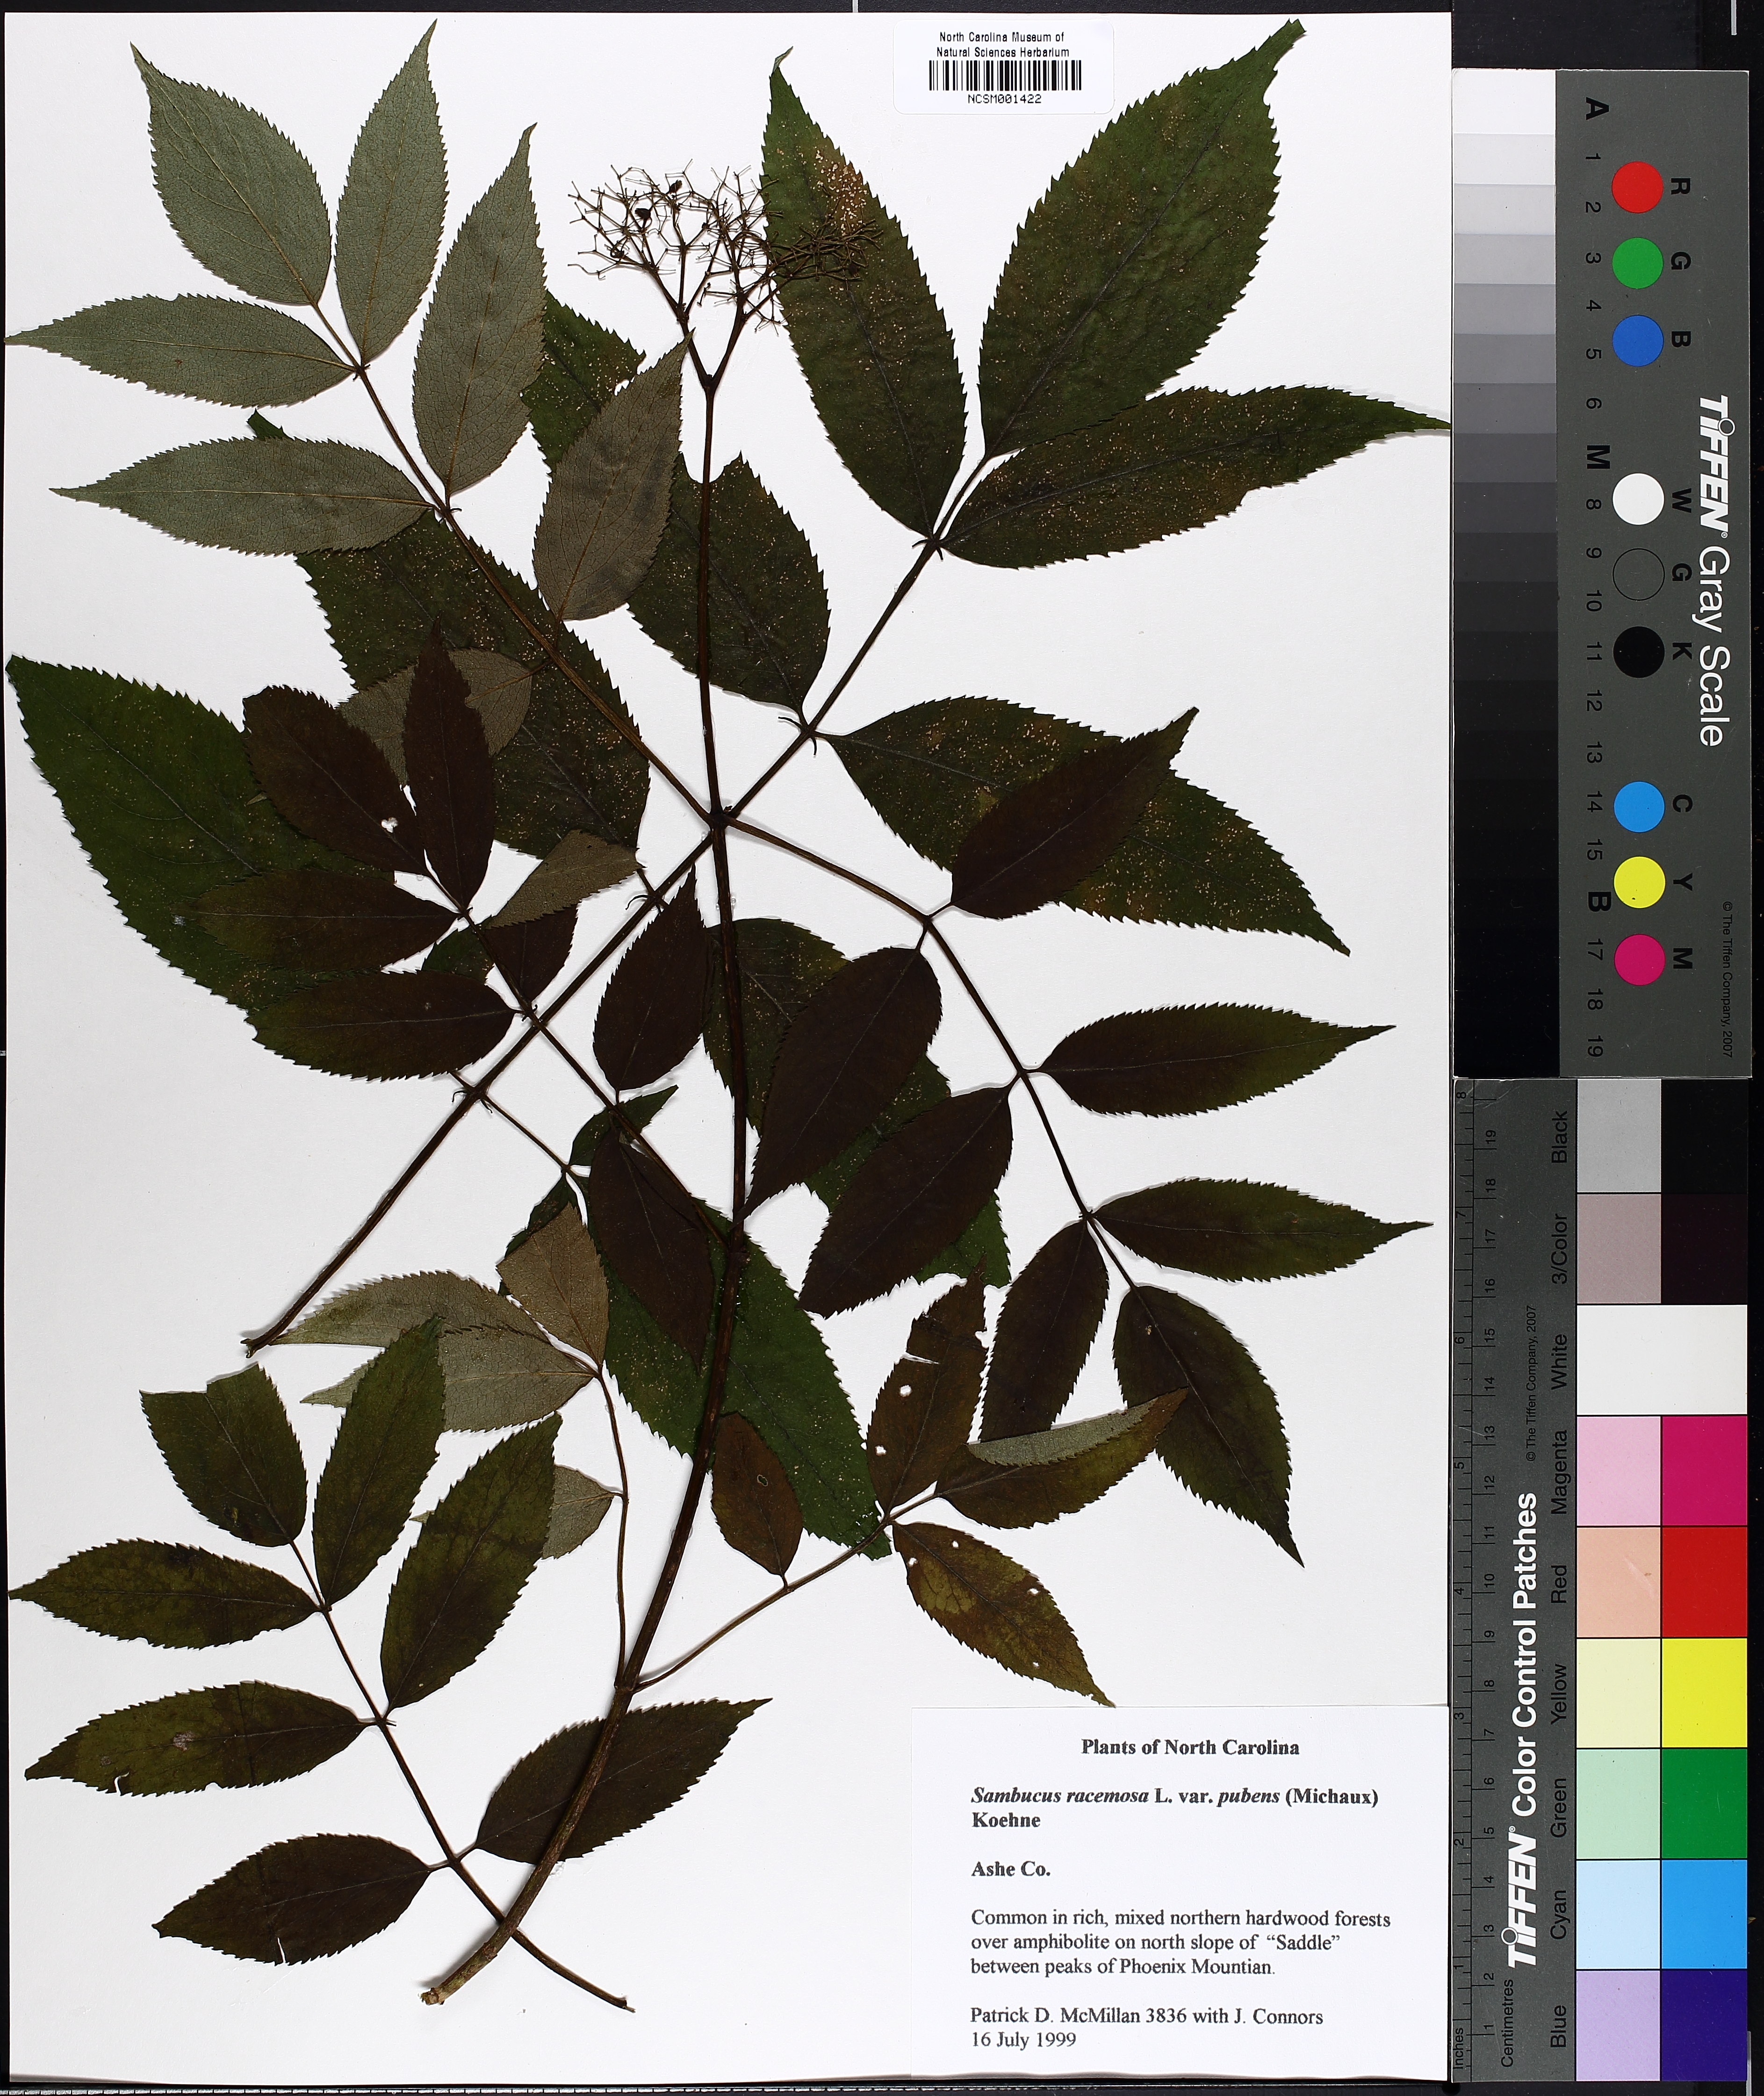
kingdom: Plantae
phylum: Tracheophyta
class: Magnoliopsida
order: Dipsacales
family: Viburnaceae
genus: Sambucus
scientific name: Sambucus racemosa
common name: Red-berried elder
